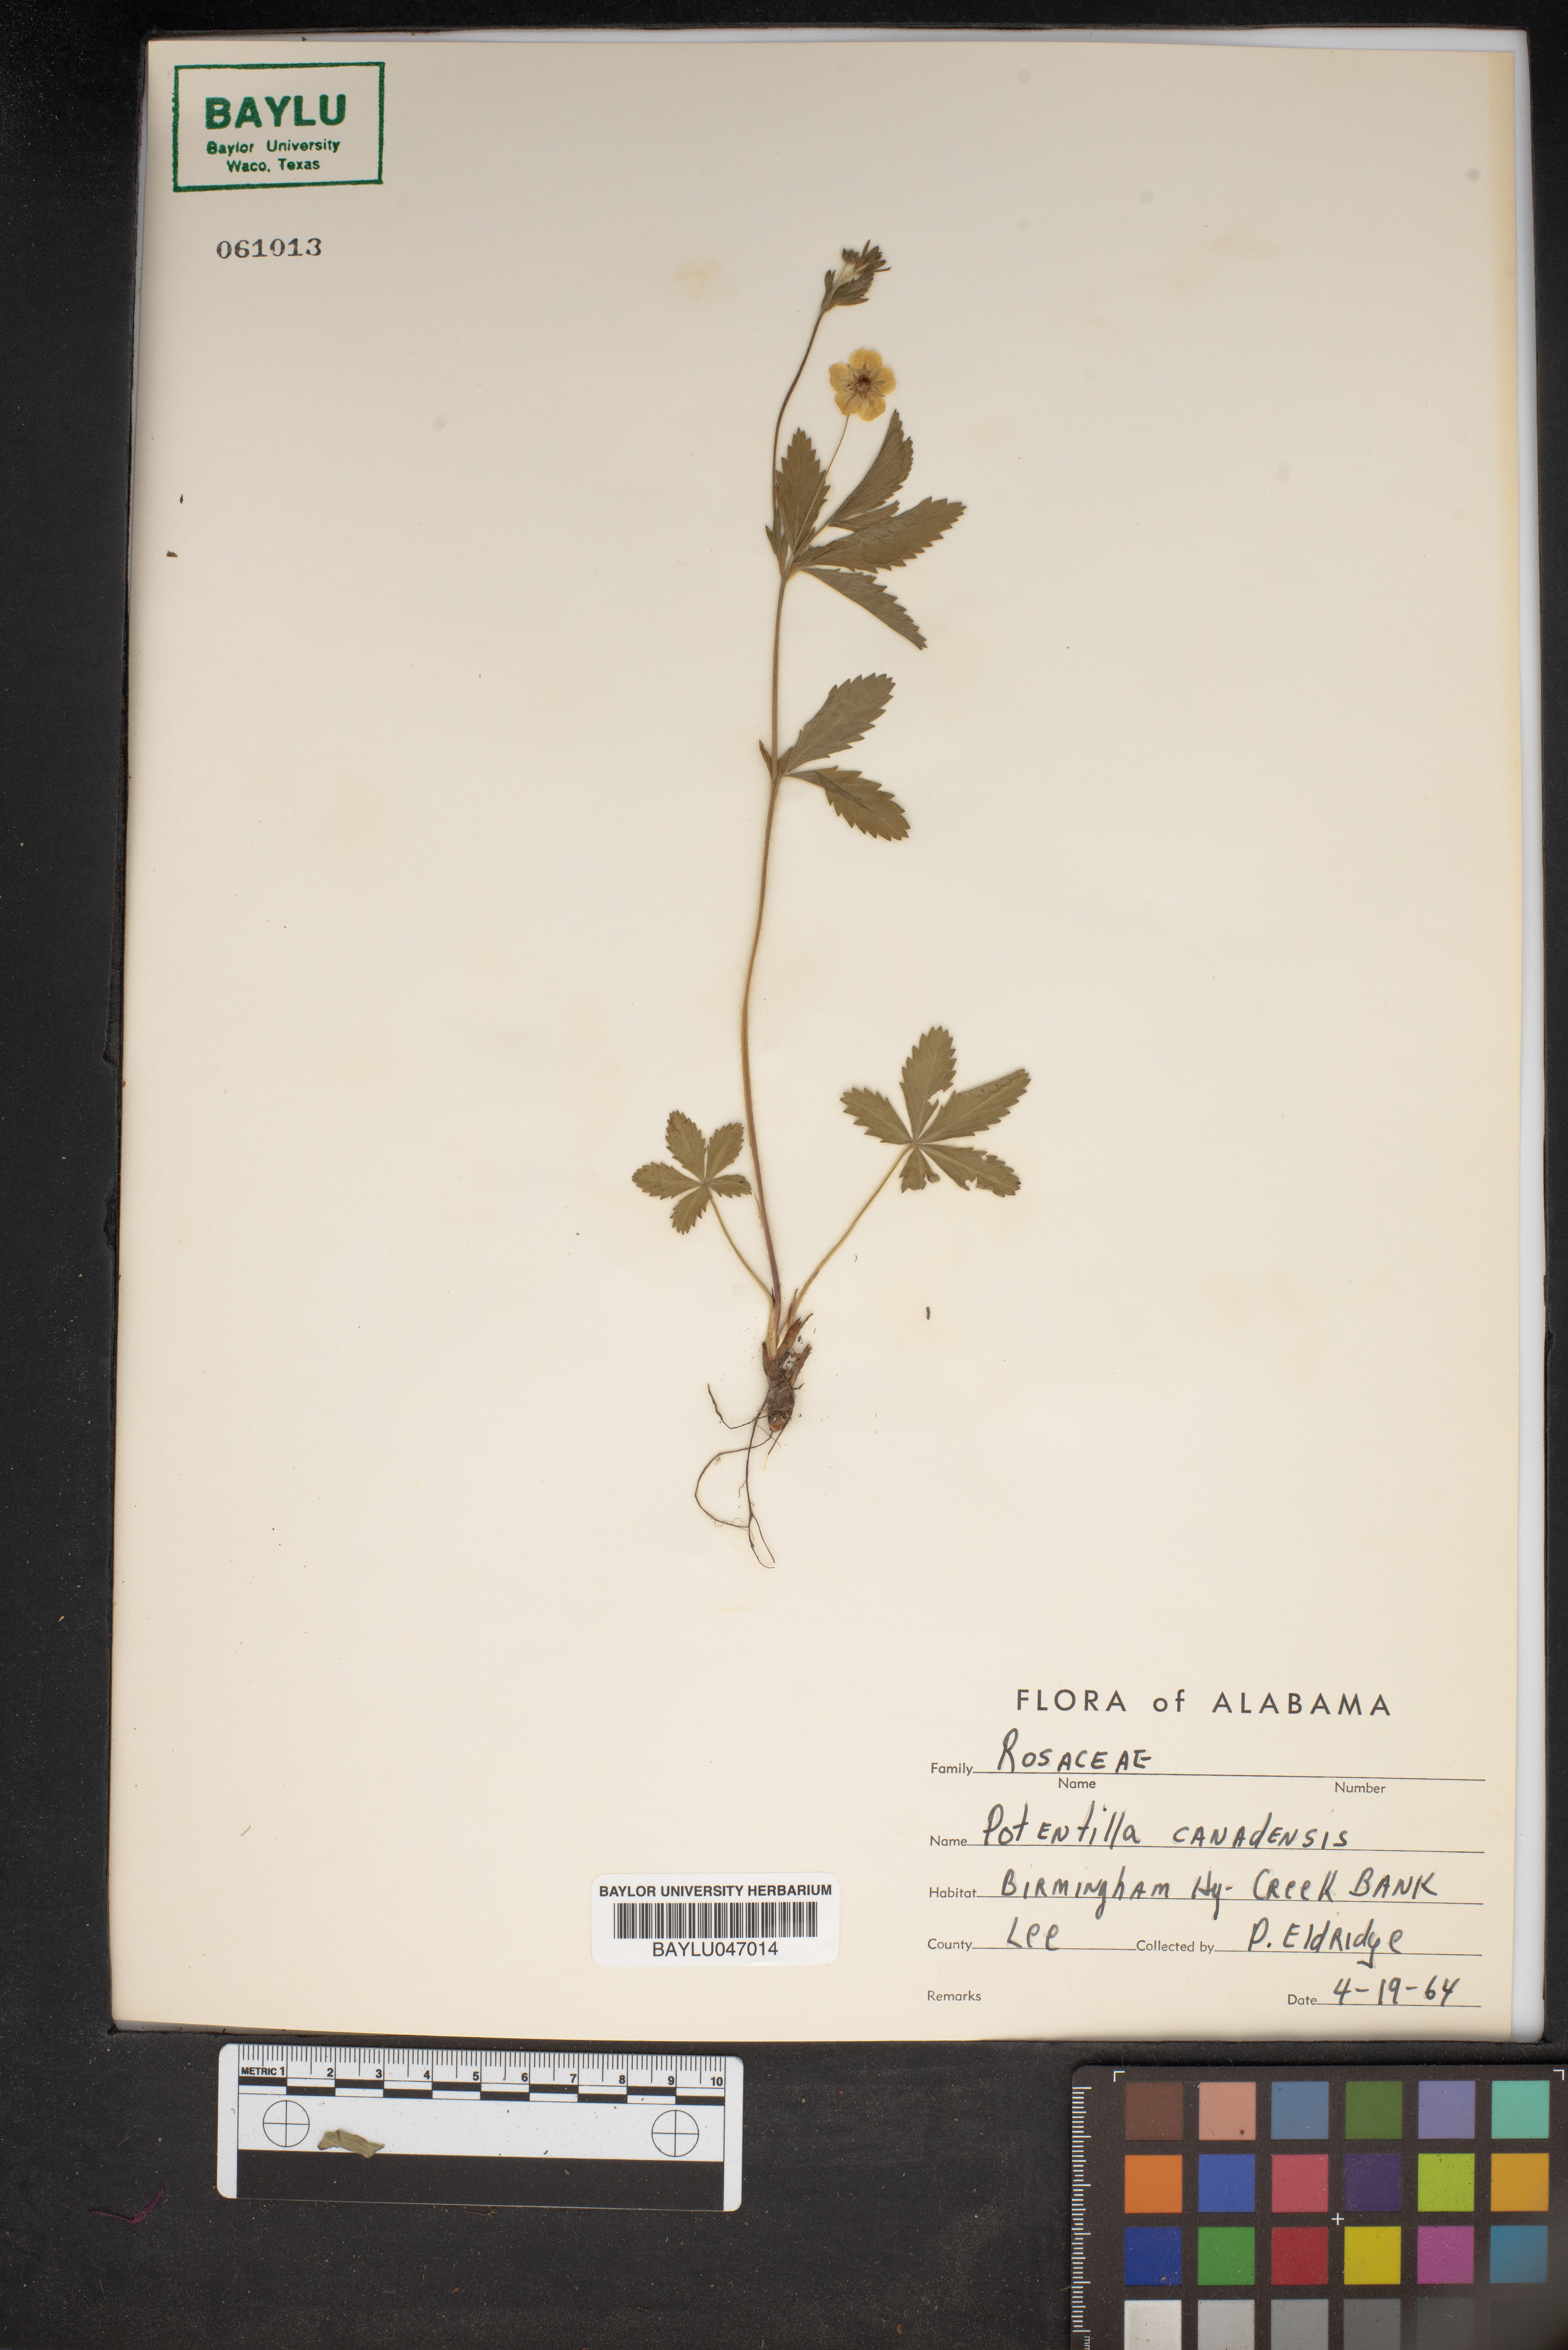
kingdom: Plantae
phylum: Tracheophyta
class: Magnoliopsida
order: Rosales
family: Rosaceae
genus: Potentilla
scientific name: Potentilla canadensis
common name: Canada cinquefoil
